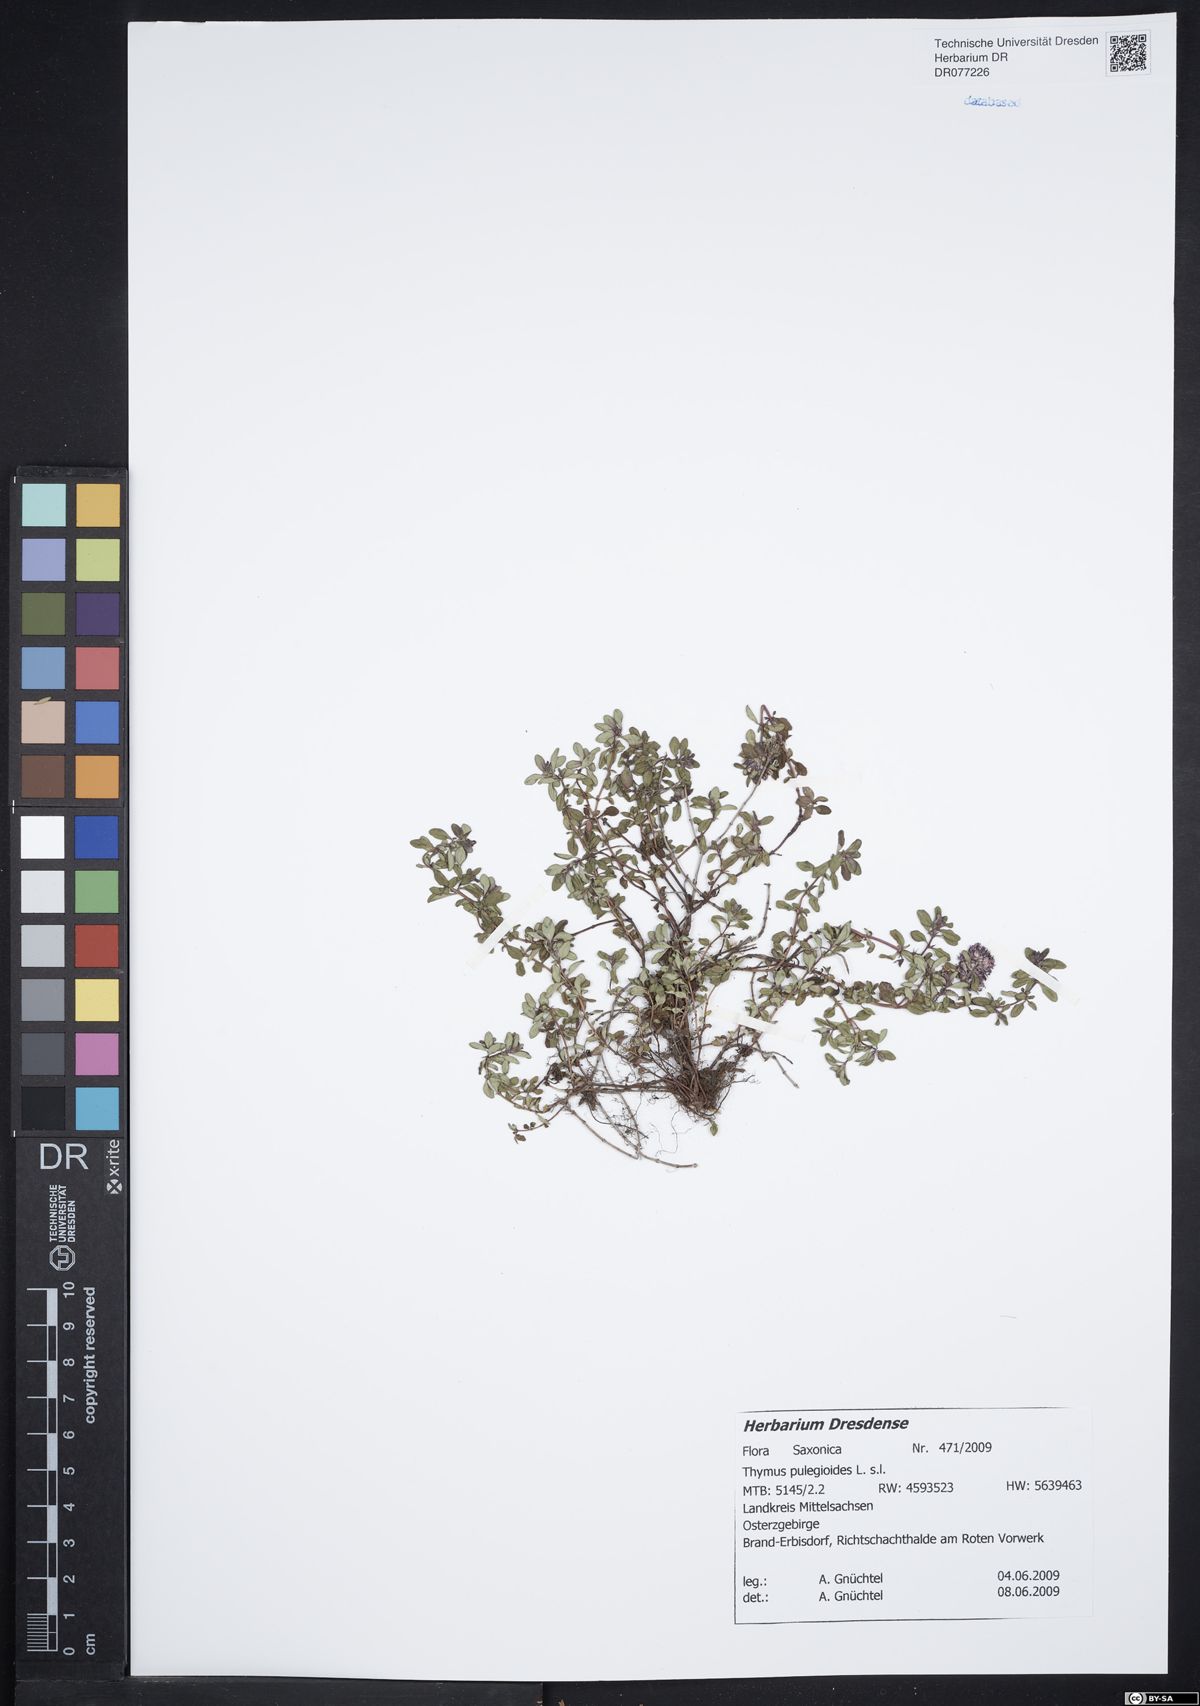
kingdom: Plantae
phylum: Tracheophyta
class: Magnoliopsida
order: Lamiales
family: Lamiaceae
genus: Thymus
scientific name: Thymus pulegioides
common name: Large thyme
